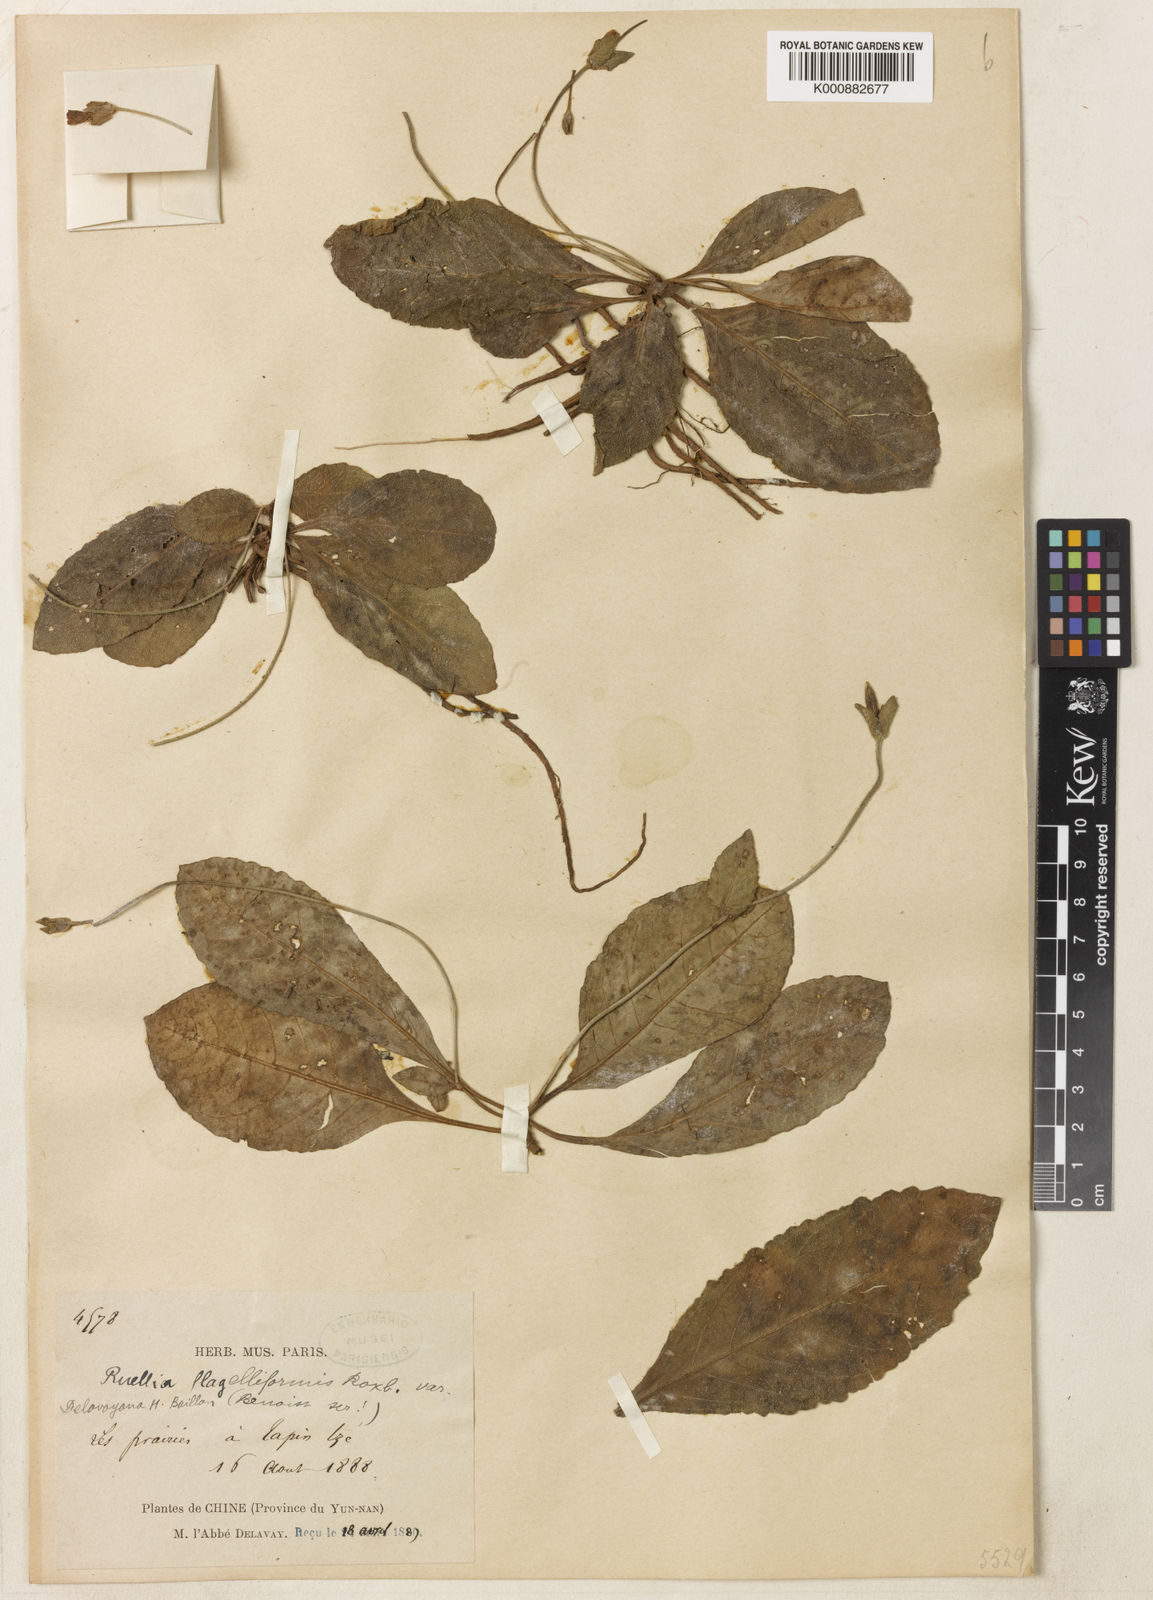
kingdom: Plantae
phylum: Tracheophyta
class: Magnoliopsida
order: Lamiales
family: Acanthaceae
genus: Pararuellia
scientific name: Pararuellia delavayana
